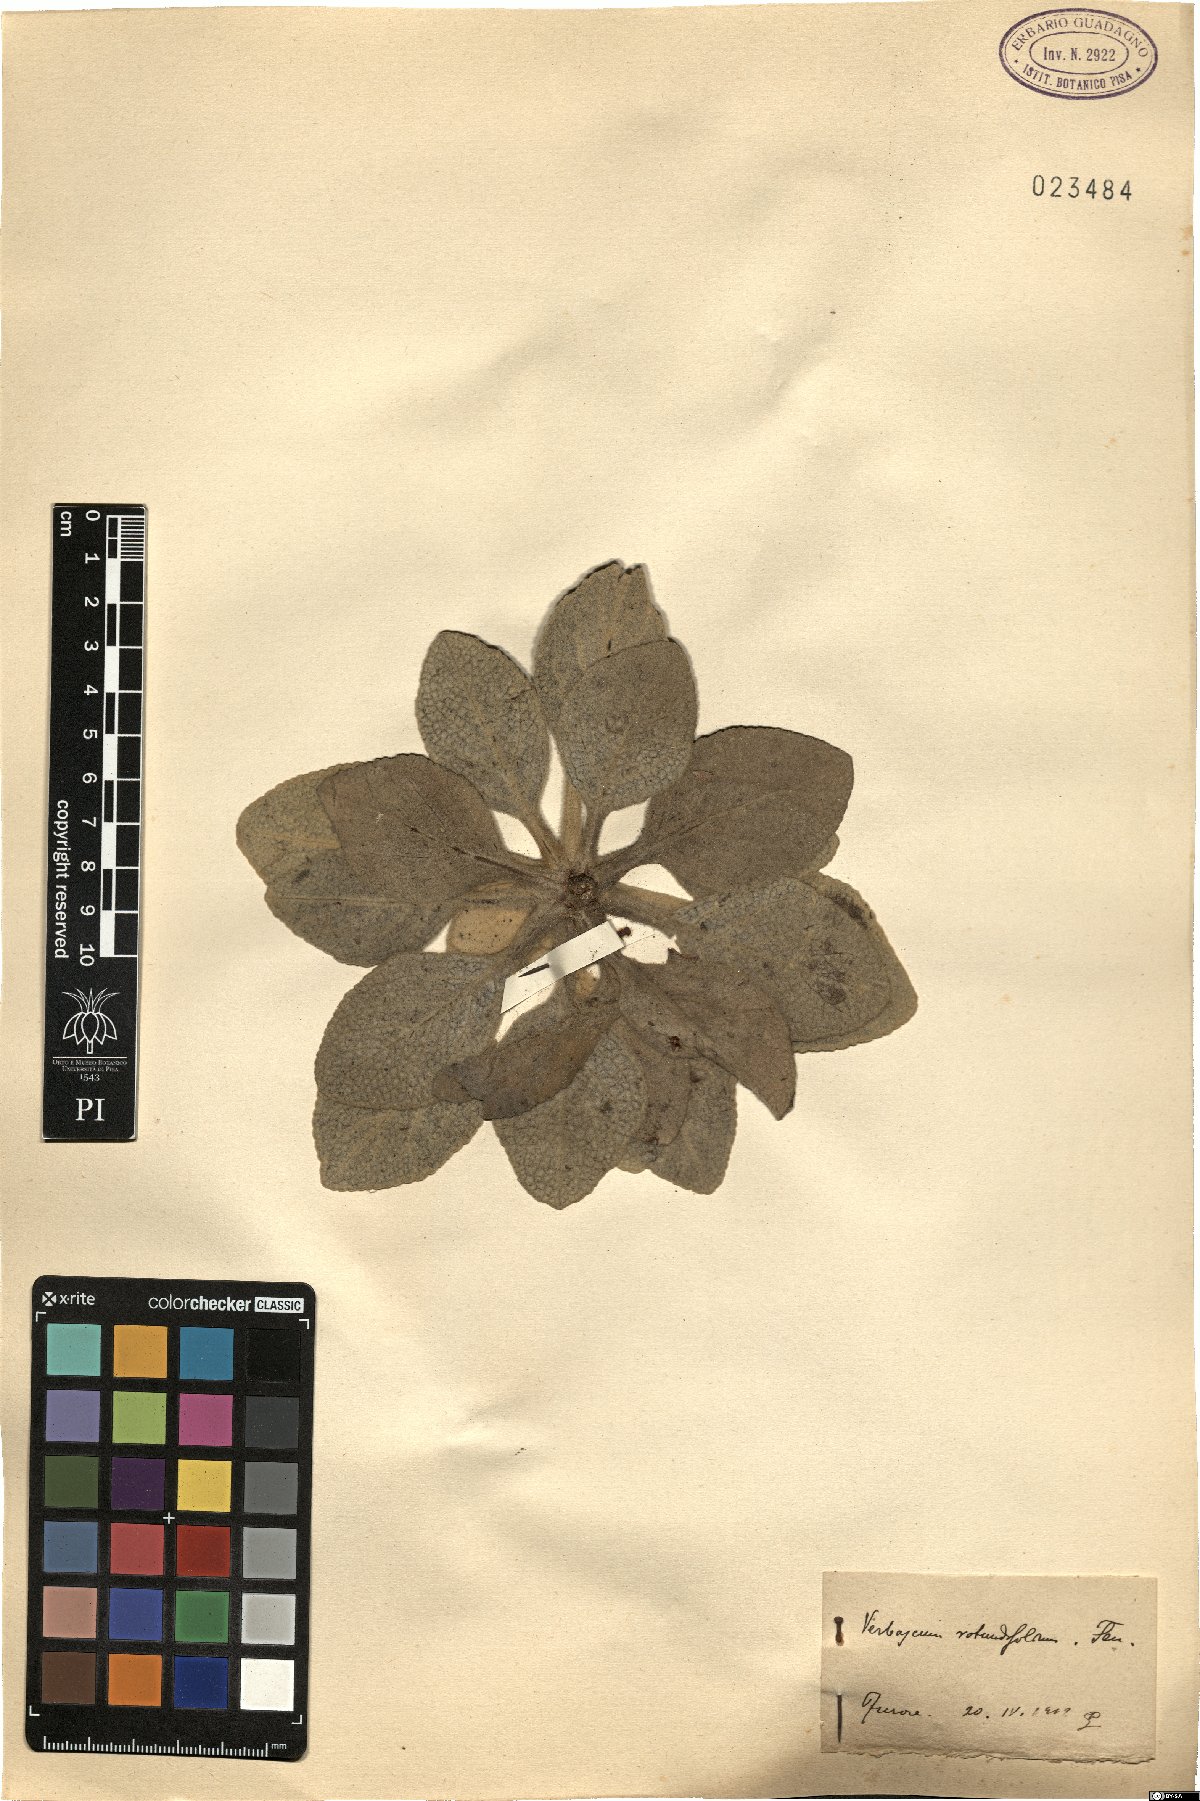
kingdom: Plantae
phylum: Tracheophyta
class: Magnoliopsida
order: Lamiales
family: Scrophulariaceae
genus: Verbascum
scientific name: Verbascum rotundifolium
